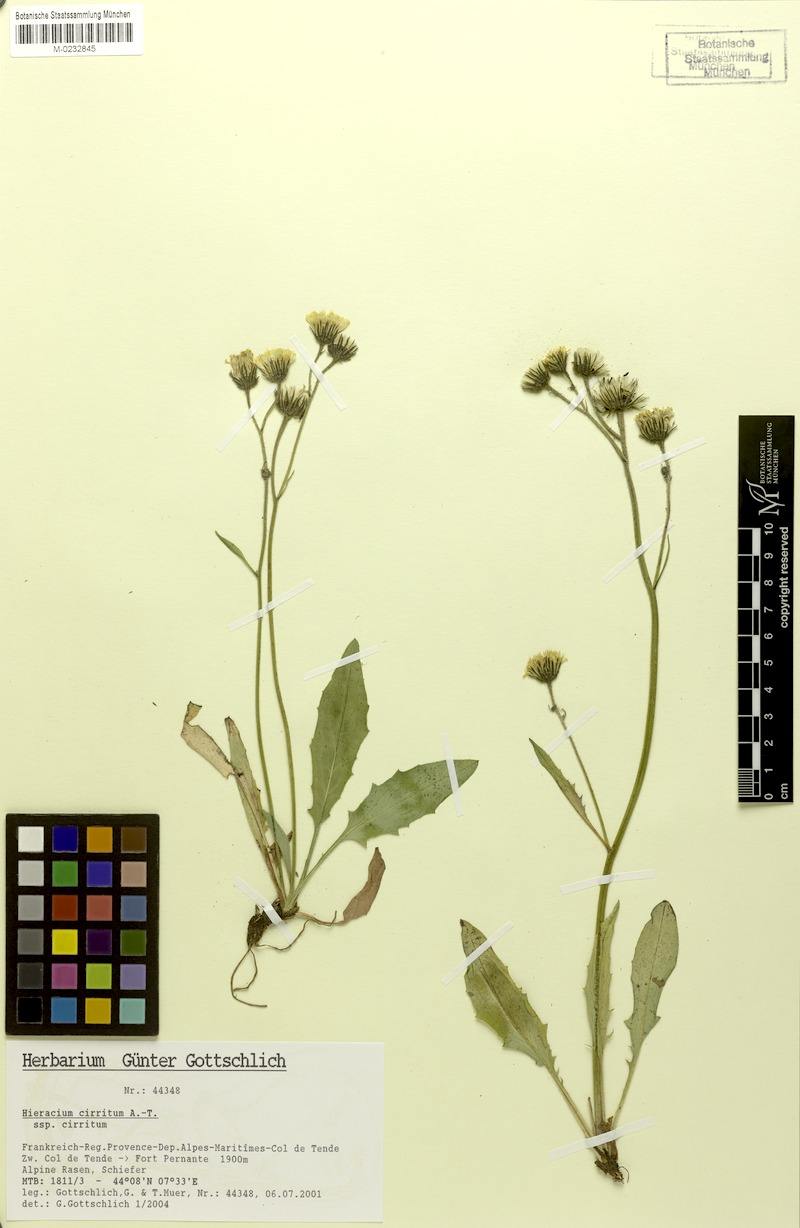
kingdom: Plantae
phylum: Tracheophyta
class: Magnoliopsida
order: Asterales
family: Asteraceae
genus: Hieracium
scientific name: Hieracium cirritum
